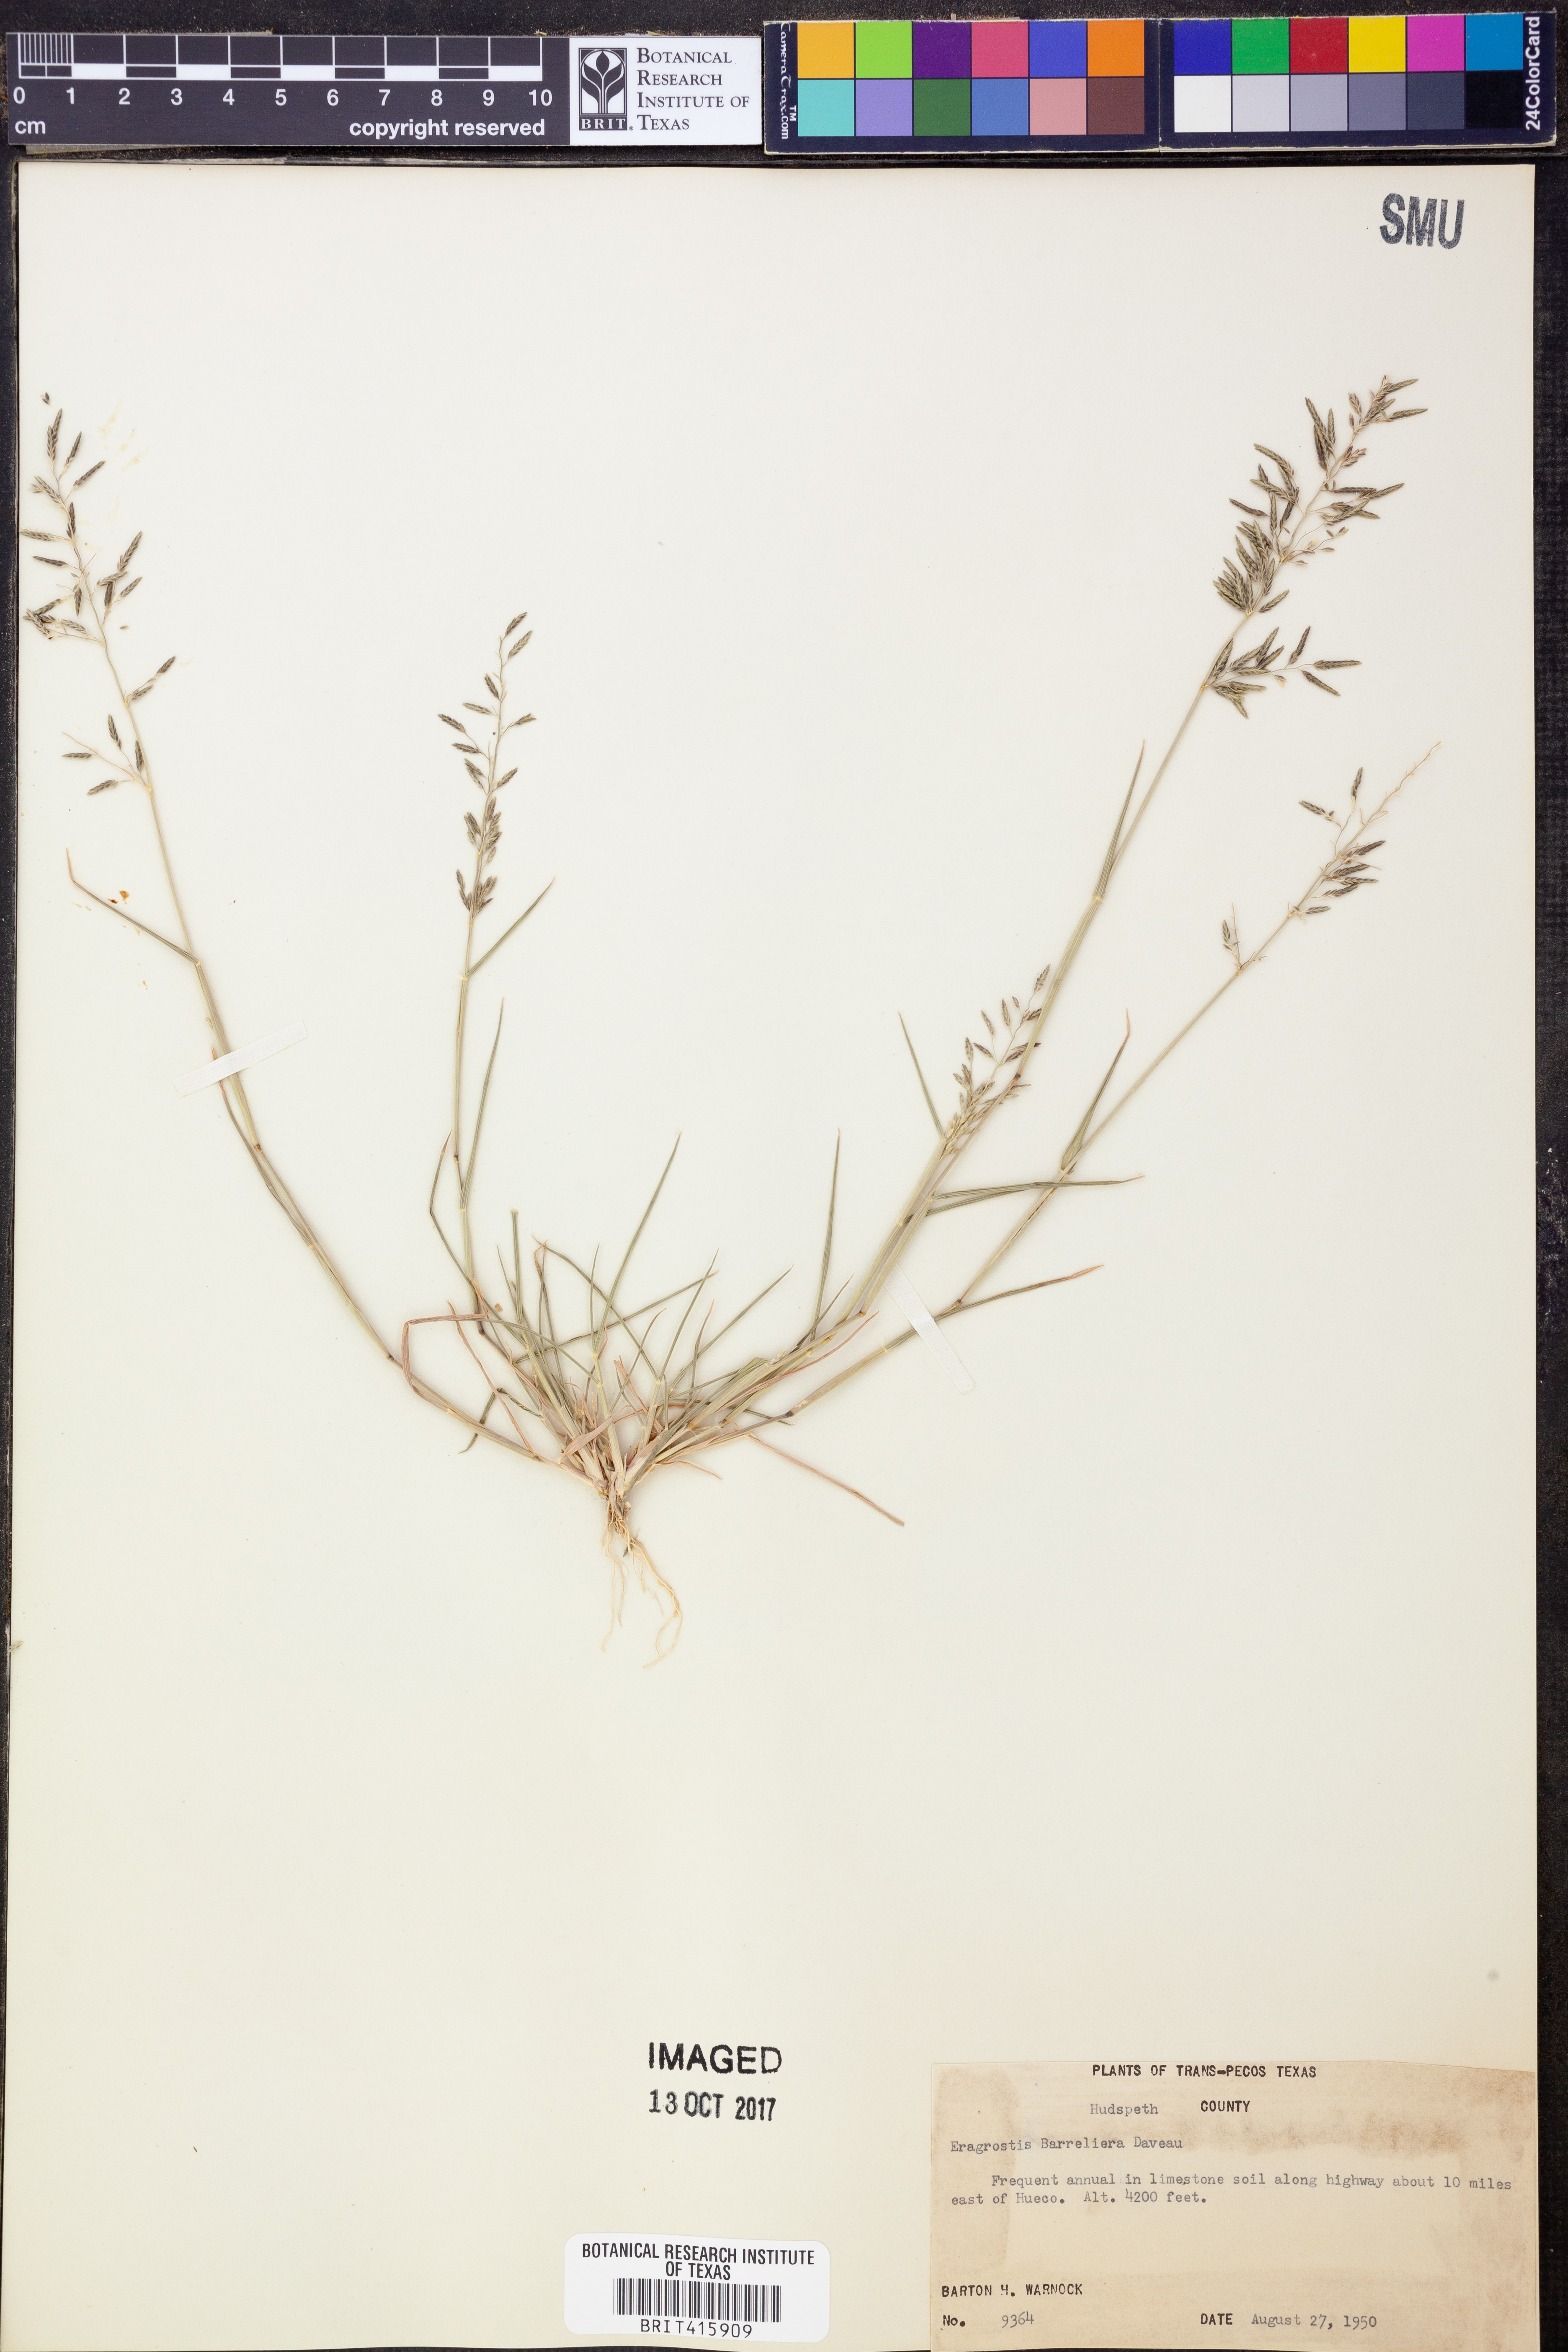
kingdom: Plantae
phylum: Tracheophyta
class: Liliopsida
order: Poales
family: Poaceae
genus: Eragrostis
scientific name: Eragrostis barrelieri
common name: Mediterranean lovegrass
